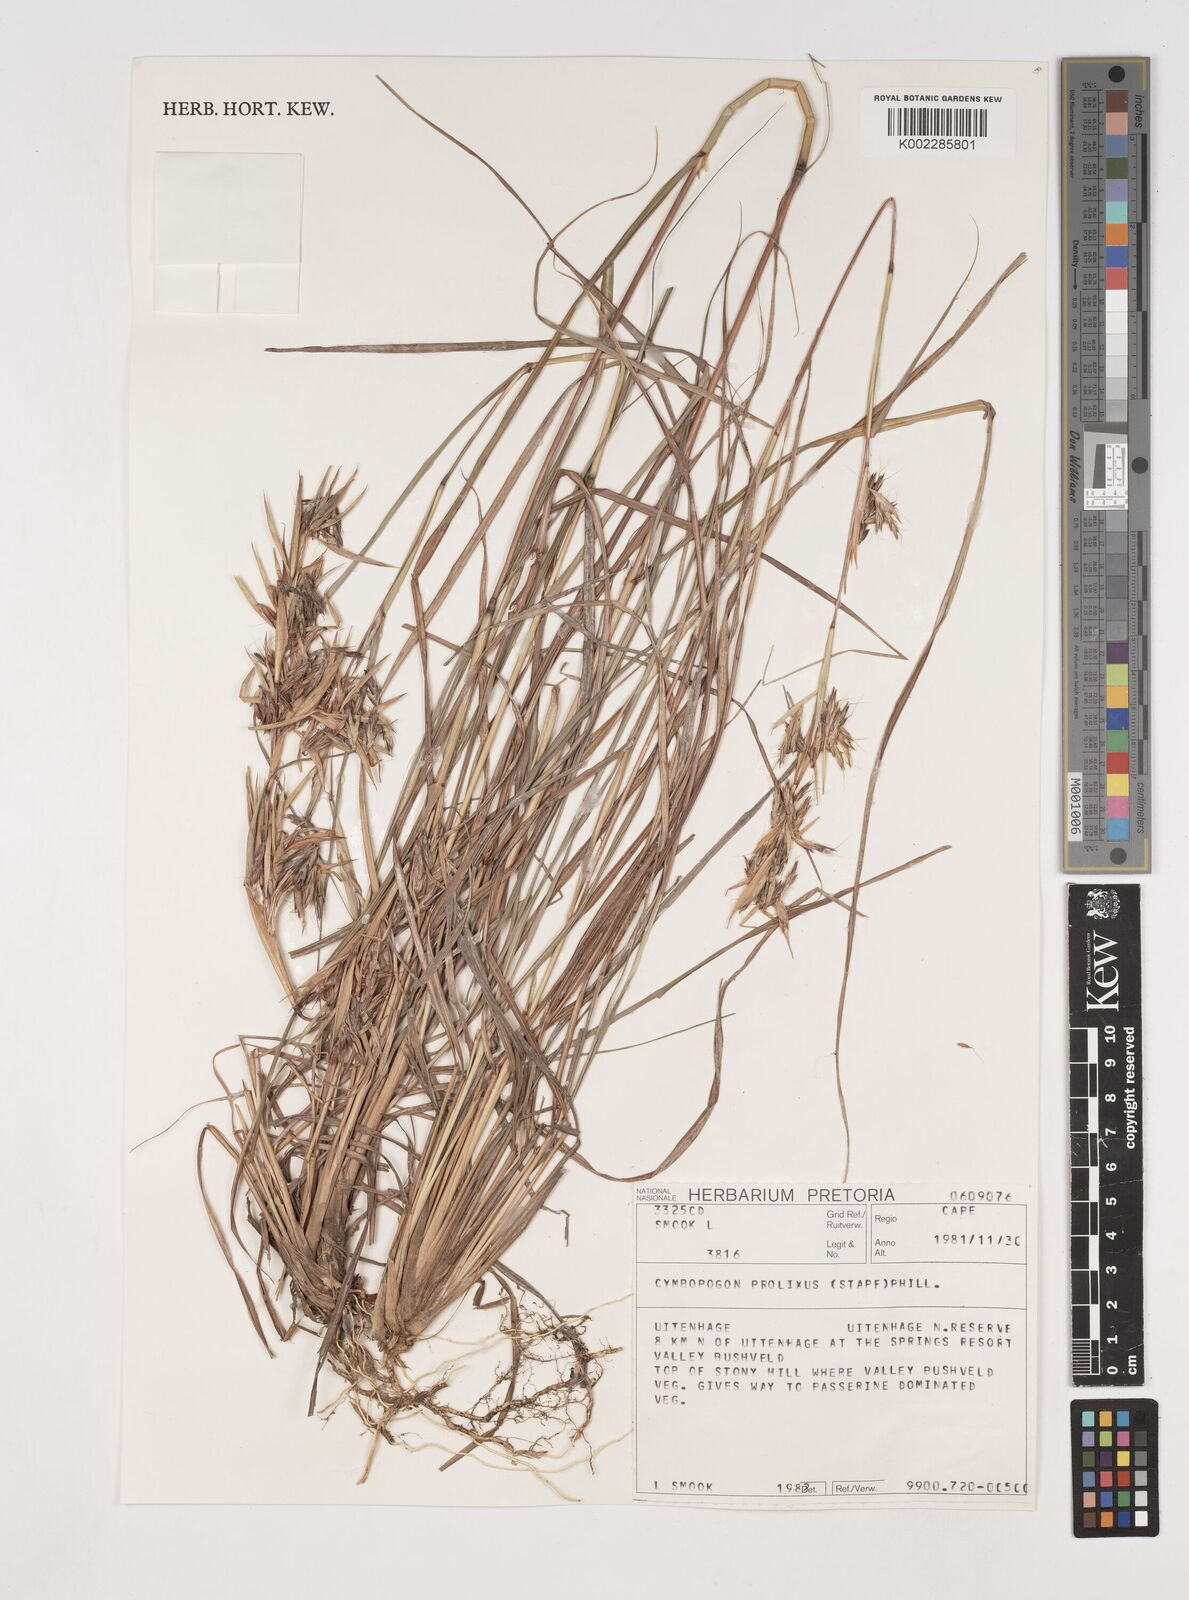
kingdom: Plantae
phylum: Tracheophyta
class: Liliopsida
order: Poales
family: Poaceae
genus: Cymbopogon
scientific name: Cymbopogon nardus
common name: Giant turpentine grass
